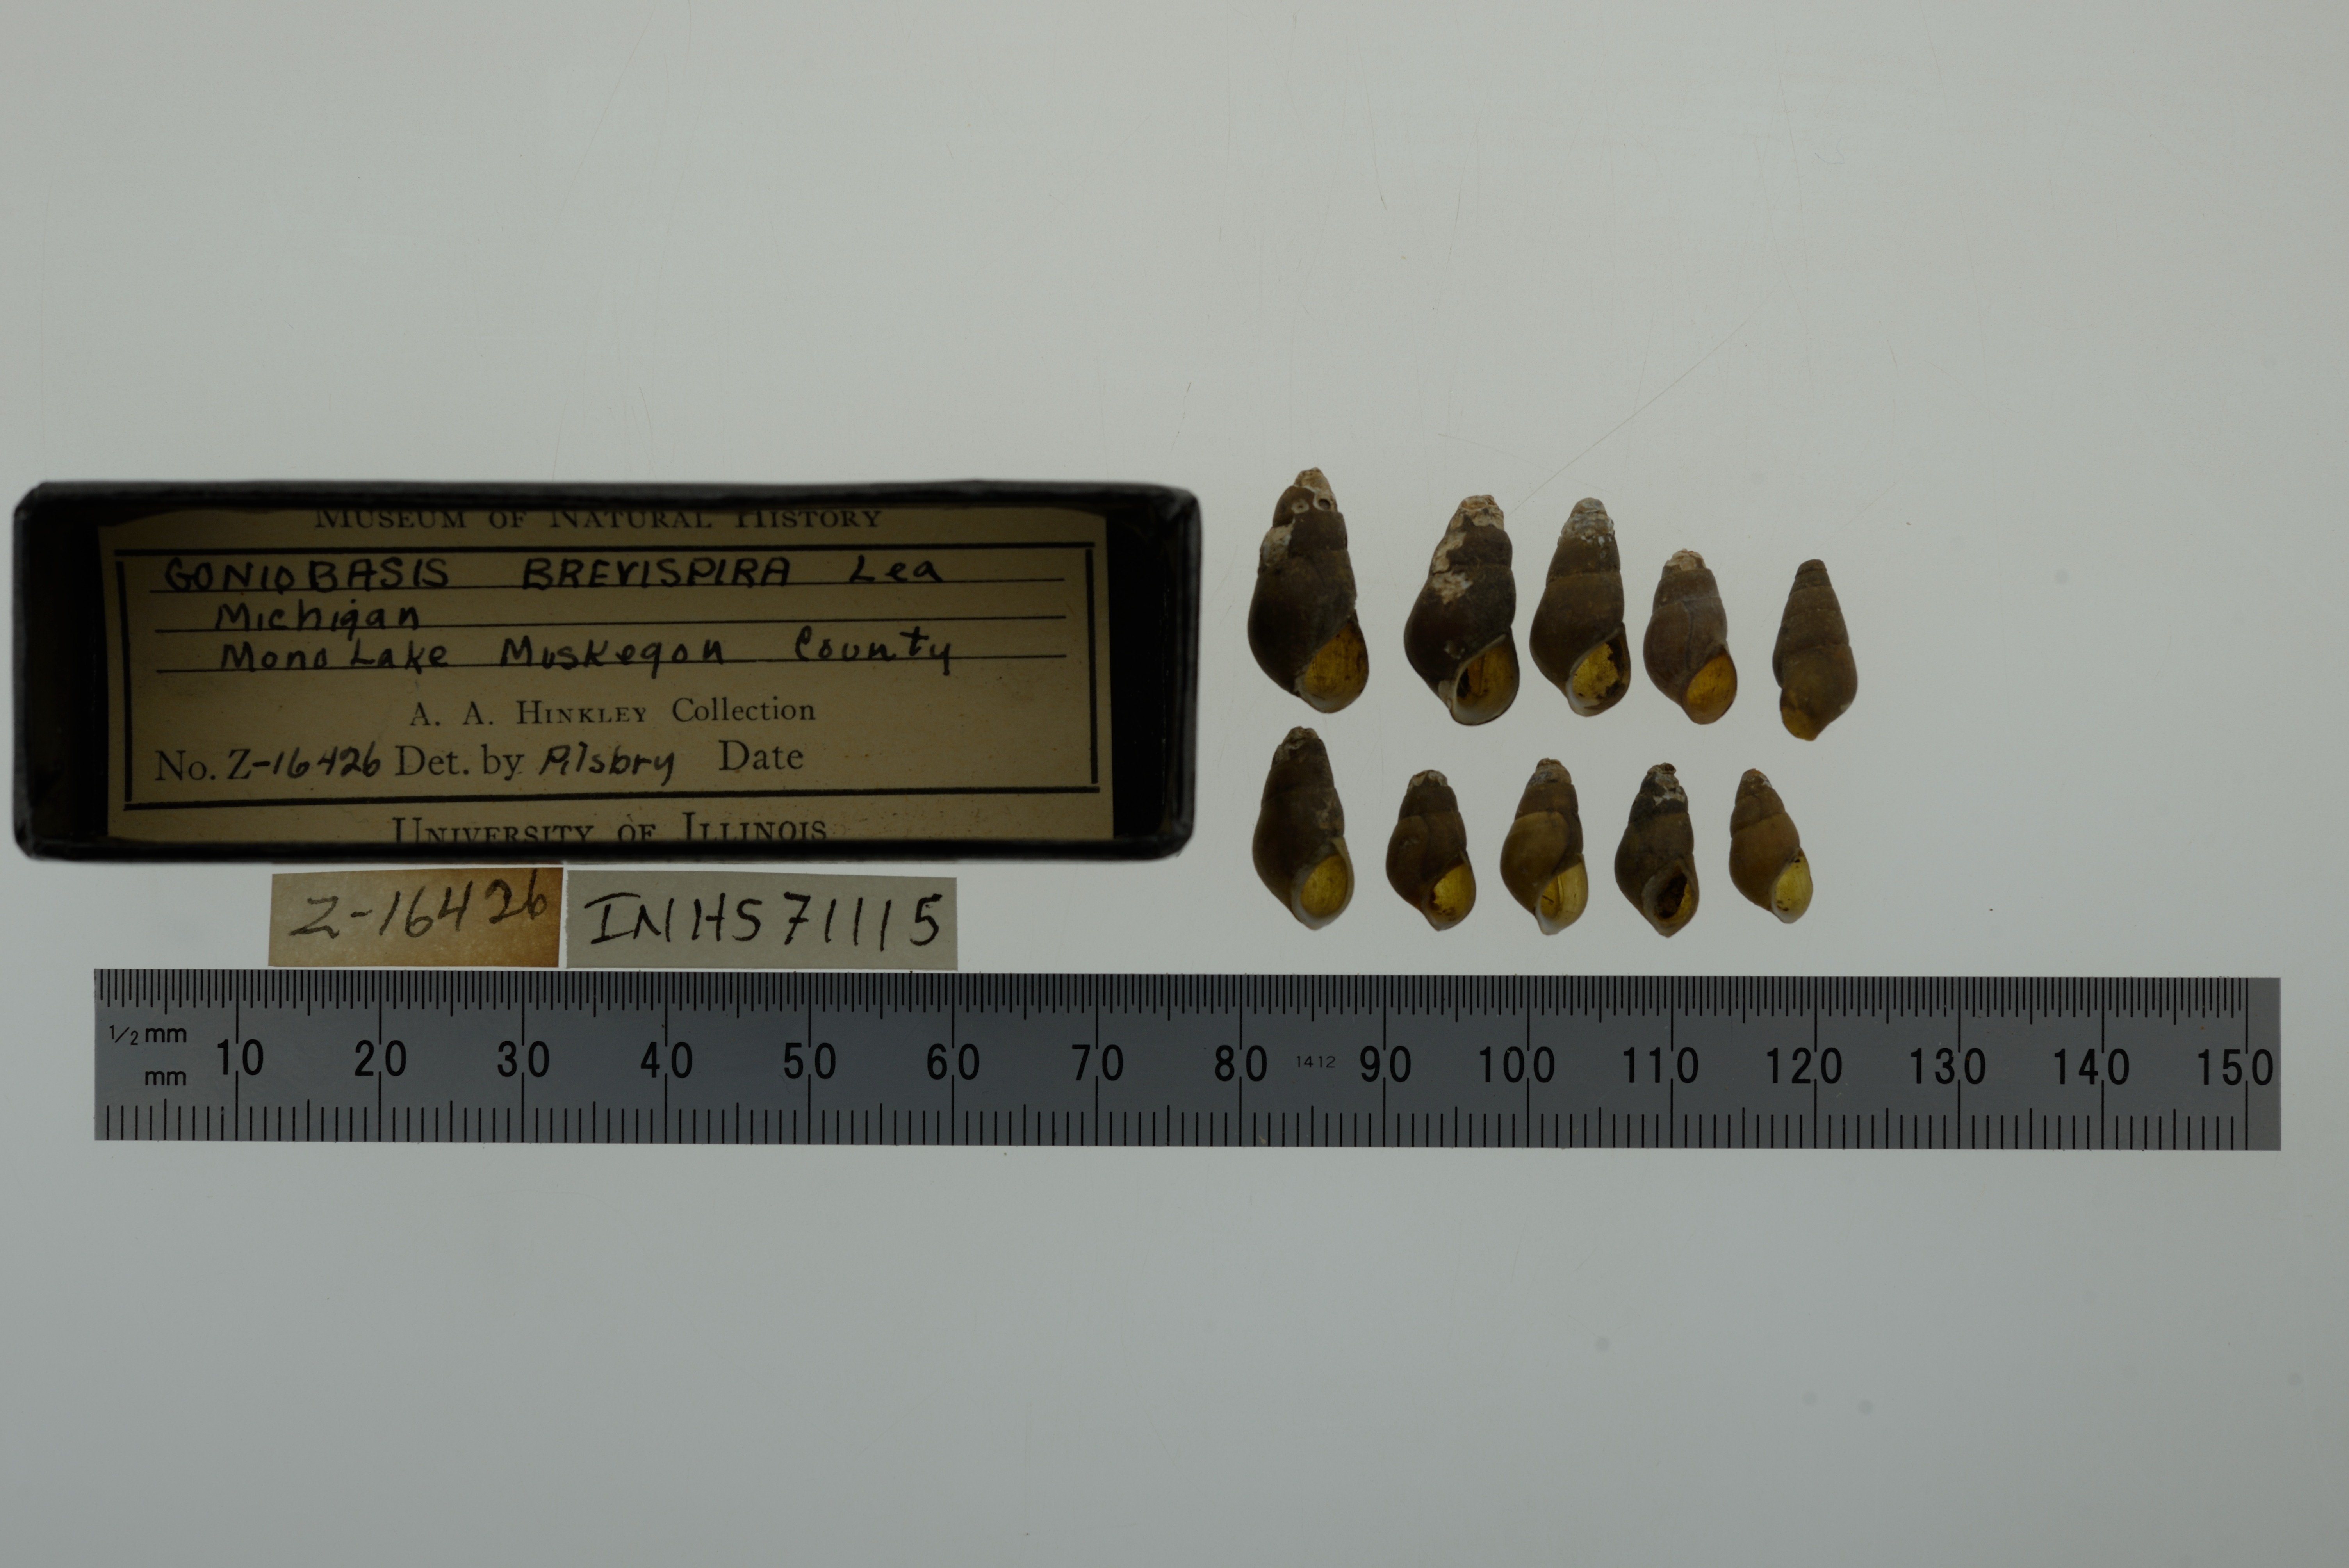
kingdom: Animalia
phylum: Mollusca
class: Gastropoda
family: Pleuroceridae
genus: Elimia
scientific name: Elimia livescens
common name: Liver elimia
